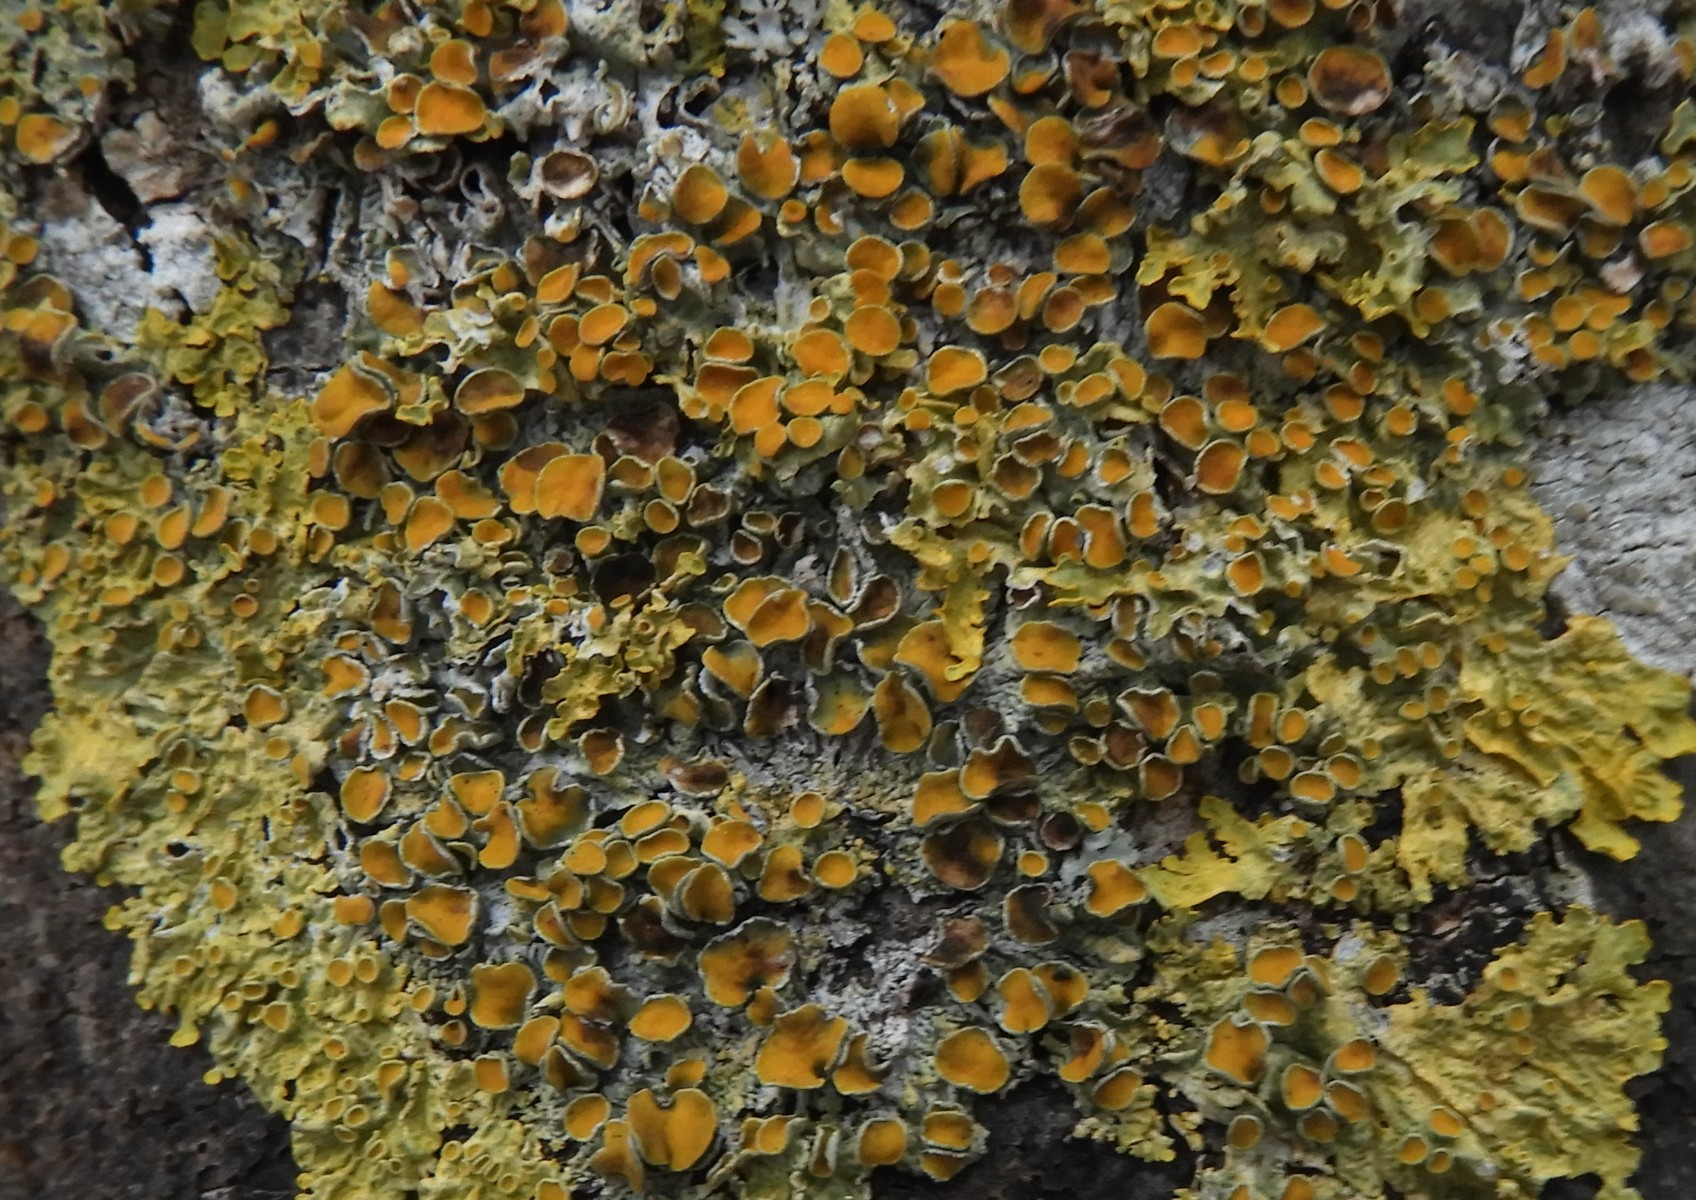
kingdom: Fungi
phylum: Ascomycota
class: Lecanoromycetes
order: Teloschistales
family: Teloschistaceae
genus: Xanthoria
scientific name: Xanthoria parietina
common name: almindelig væggelav
